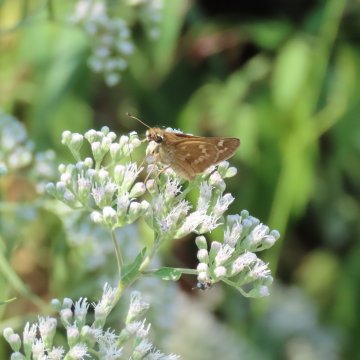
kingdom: Animalia
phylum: Arthropoda
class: Insecta
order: Lepidoptera
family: Hesperiidae
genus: Atalopedes
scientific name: Atalopedes campestris
